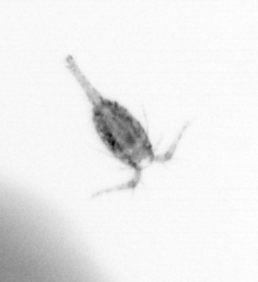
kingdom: Animalia
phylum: Arthropoda
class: Copepoda
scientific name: Copepoda
